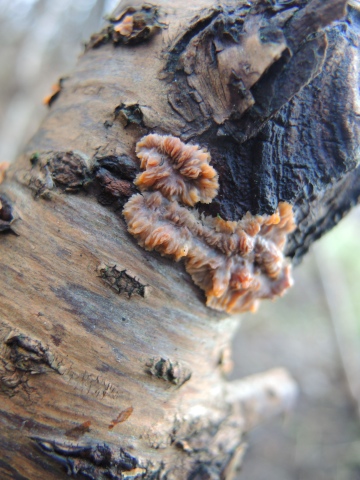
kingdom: Fungi
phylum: Basidiomycota
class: Agaricomycetes
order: Polyporales
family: Meruliaceae
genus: Phlebia
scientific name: Phlebia radiata
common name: stråle-åresvamp
